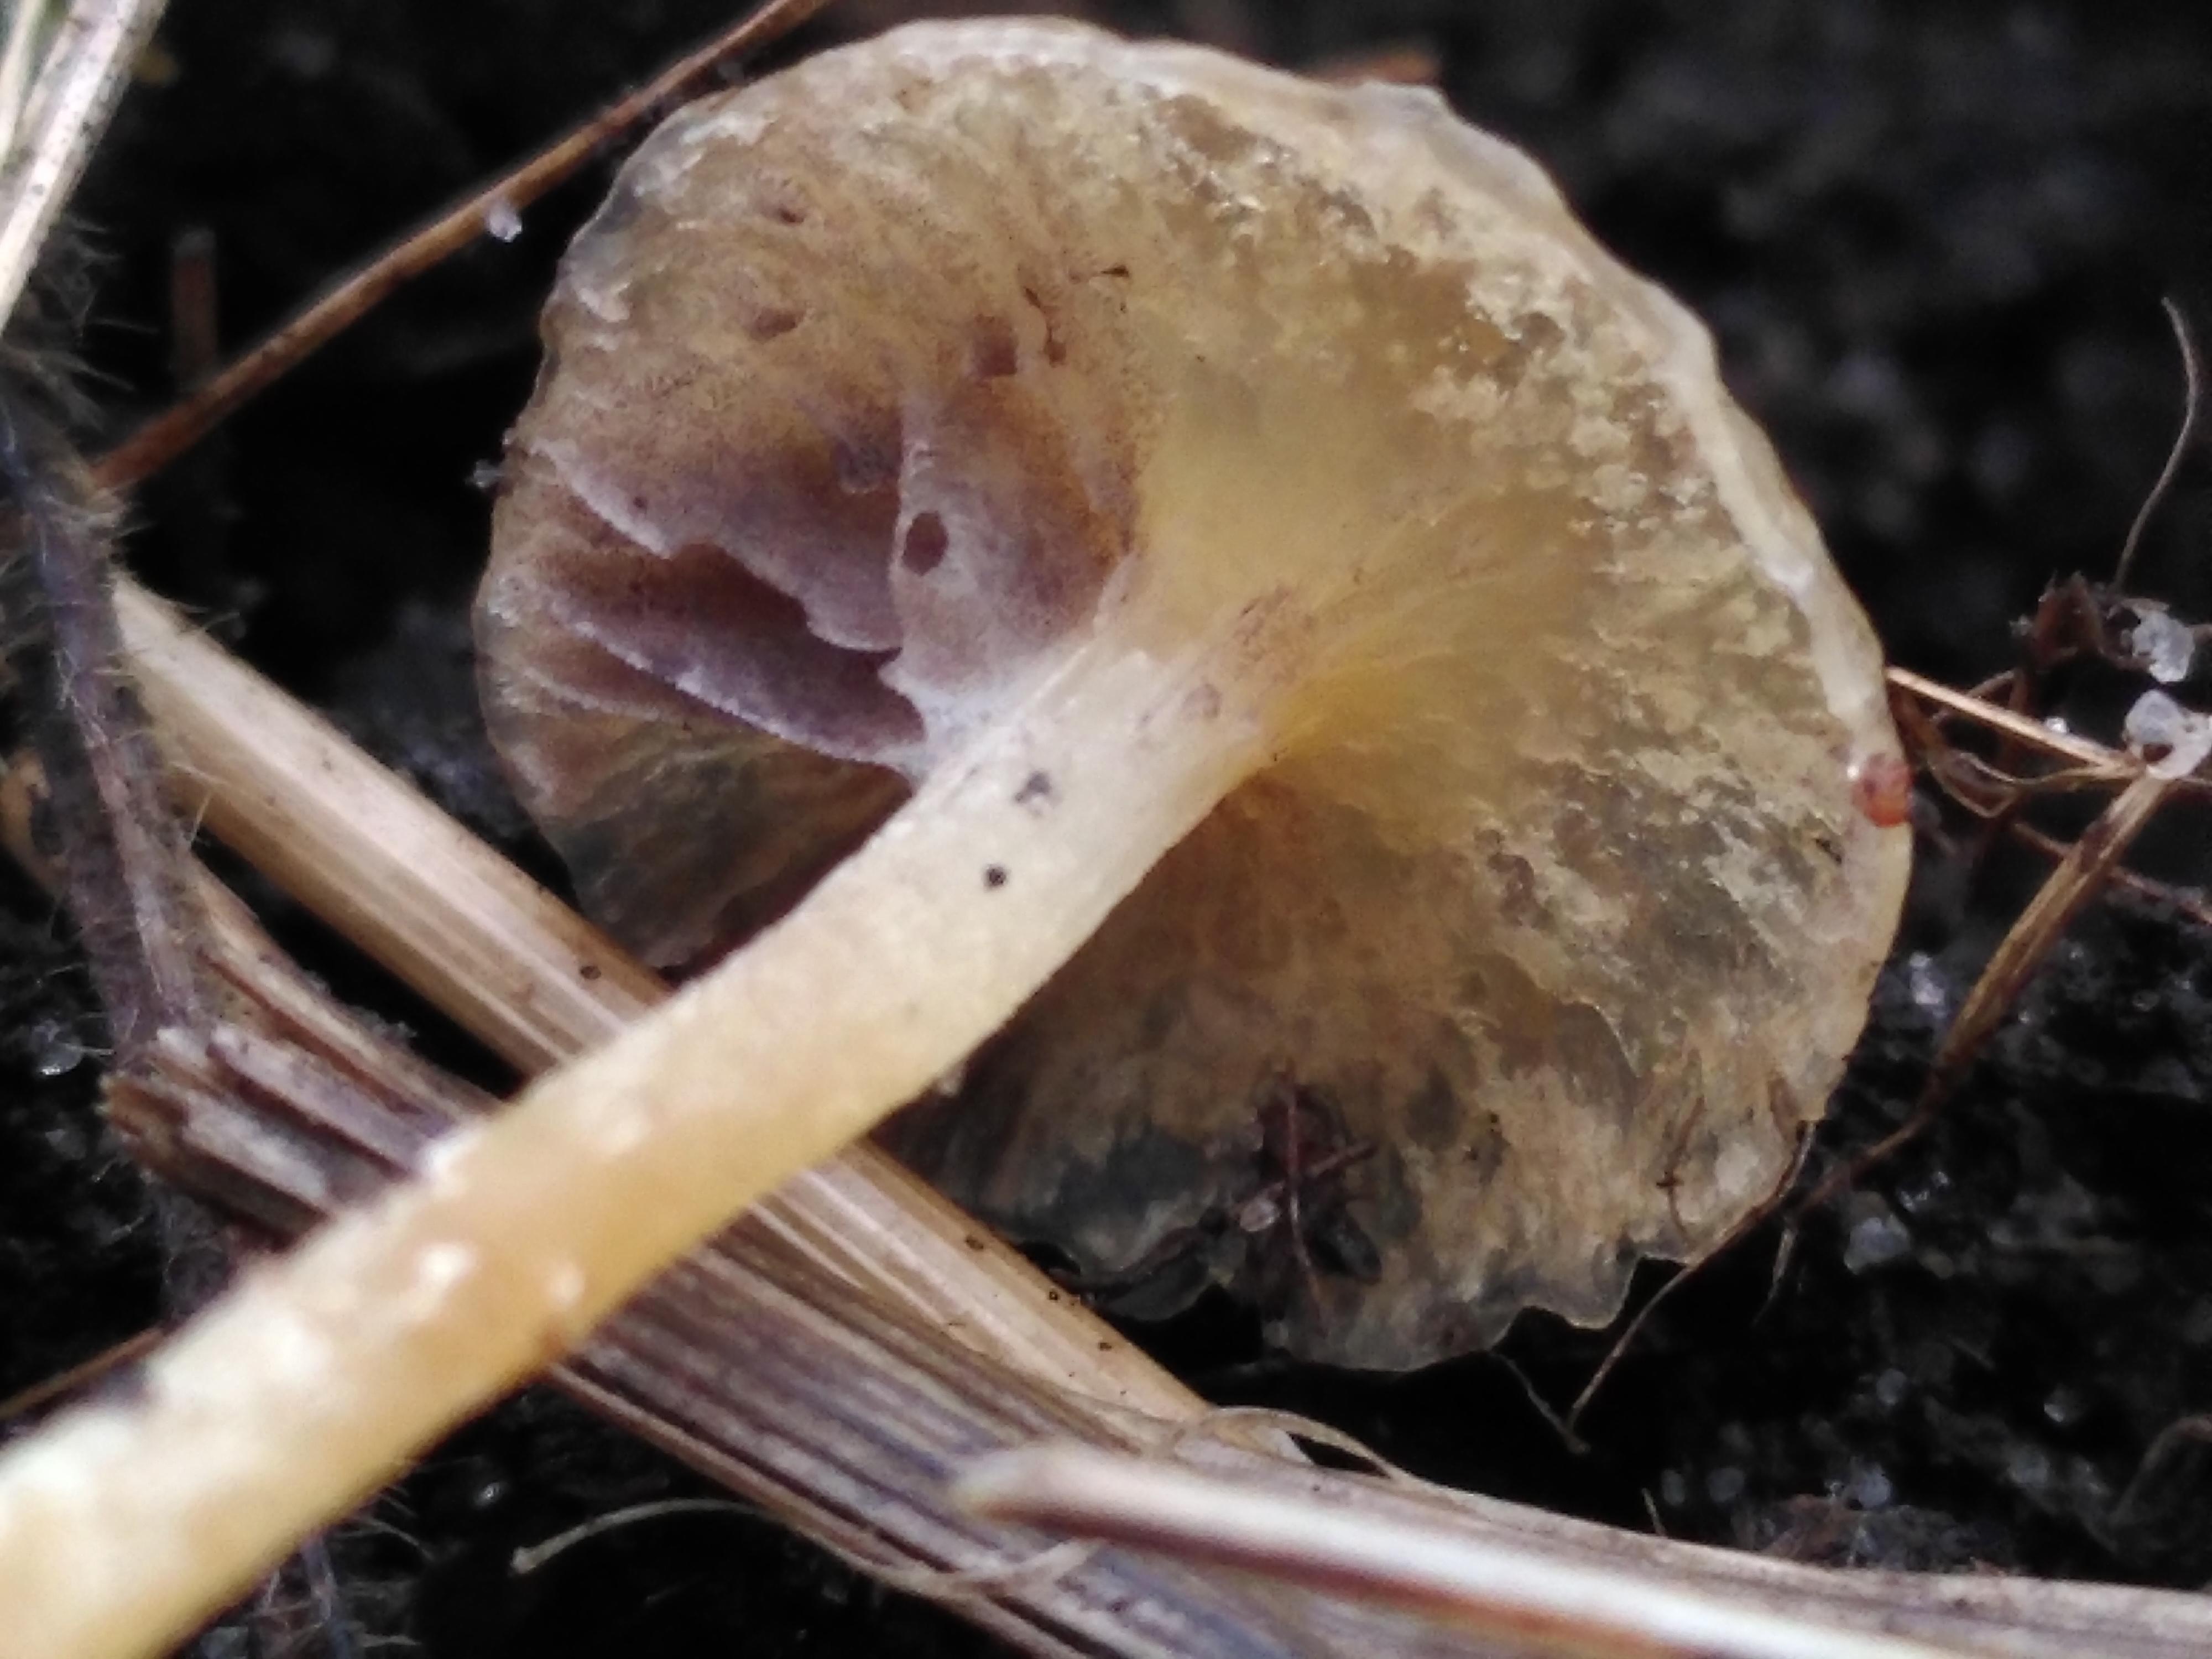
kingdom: Fungi
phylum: Basidiomycota
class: Agaricomycetes
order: Agaricales
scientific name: Agaricales
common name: champignonordenen
